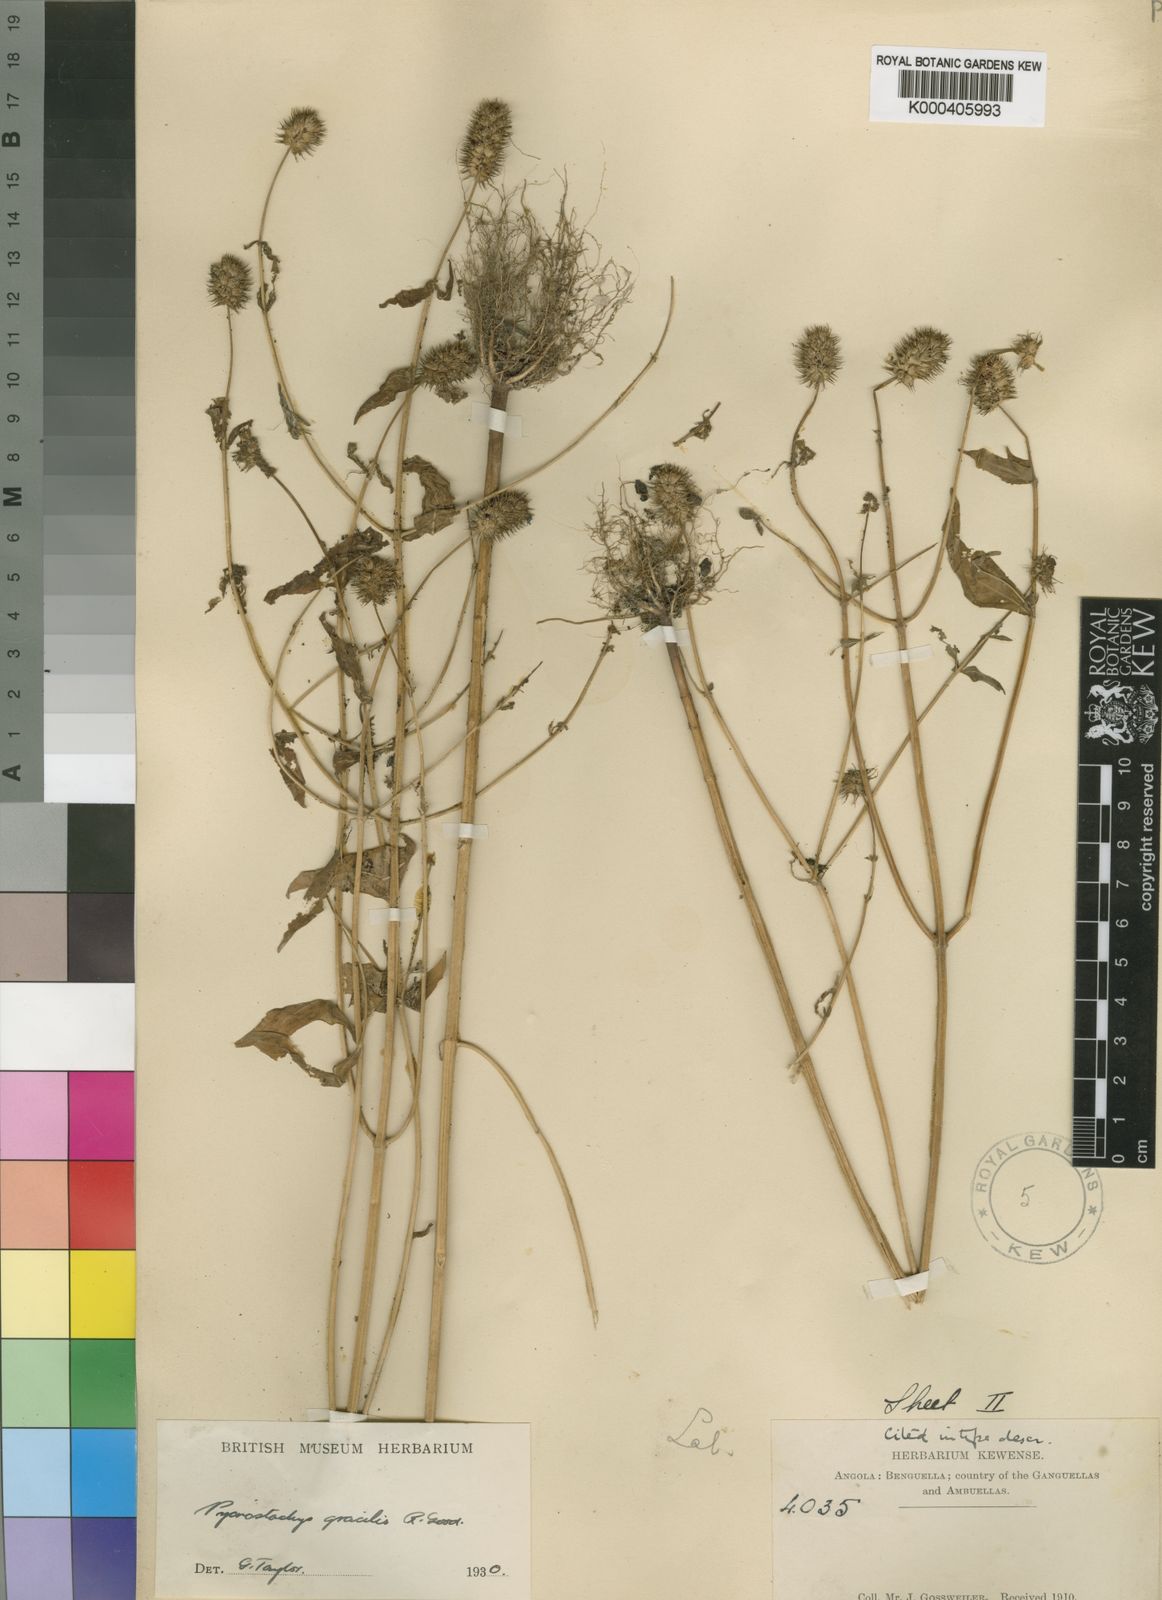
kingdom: Plantae
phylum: Tracheophyta
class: Magnoliopsida
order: Lamiales
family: Lamiaceae
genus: Coleus
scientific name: Coleus gossweileri
